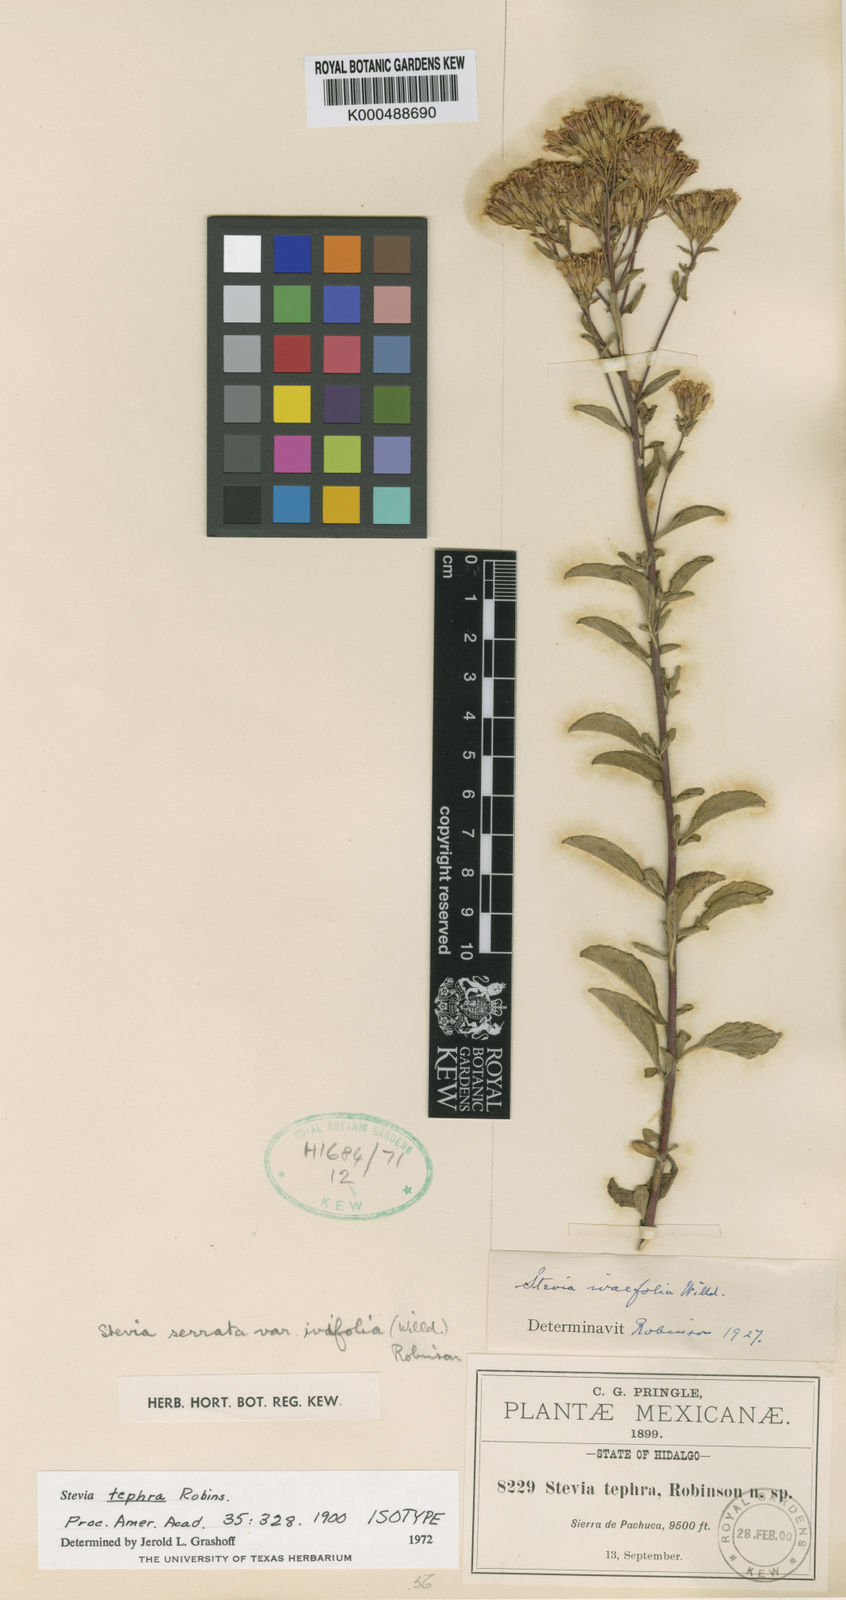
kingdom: Plantae
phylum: Tracheophyta
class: Magnoliopsida
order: Asterales
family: Asteraceae
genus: Stevia
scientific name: Stevia serrata
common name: Sawtooth candyleaf
